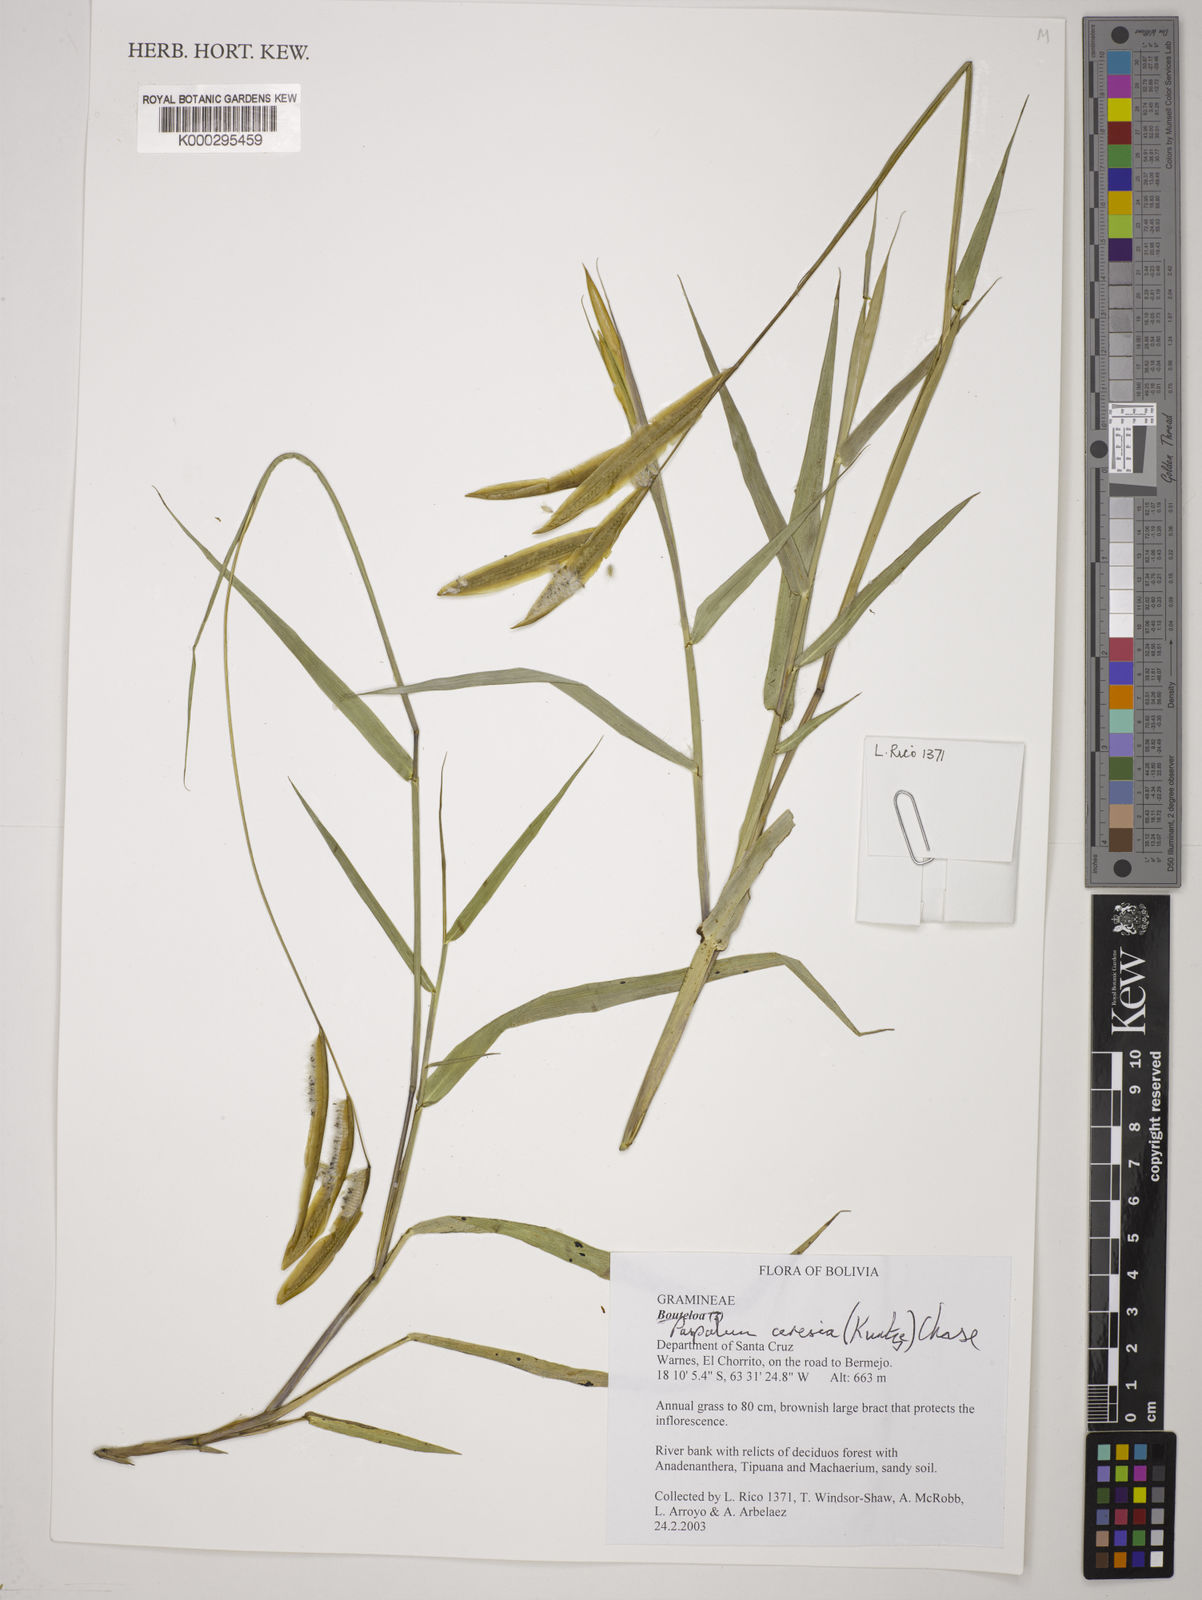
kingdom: Plantae
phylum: Tracheophyta
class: Liliopsida
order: Poales
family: Poaceae
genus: Paspalum
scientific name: Paspalum ceresia
